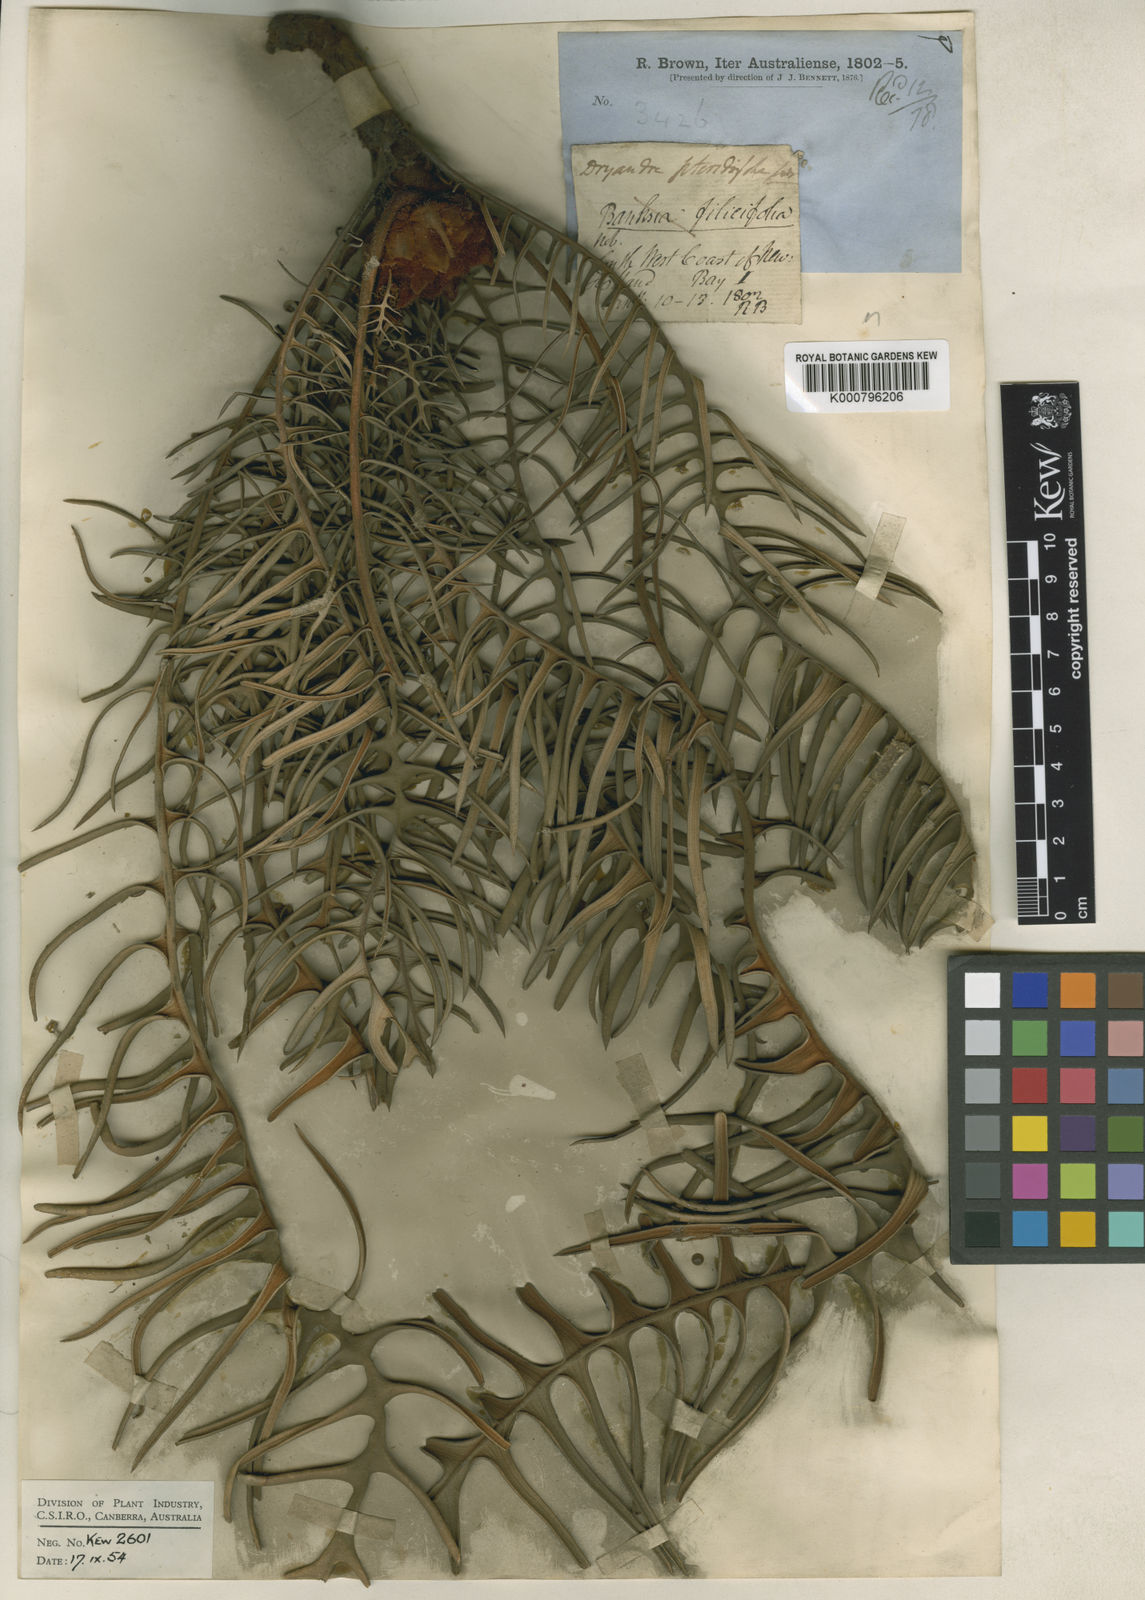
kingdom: Plantae
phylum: Tracheophyta
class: Magnoliopsida
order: Proteales
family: Proteaceae
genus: Banksia
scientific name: Banksia pteridifolia
